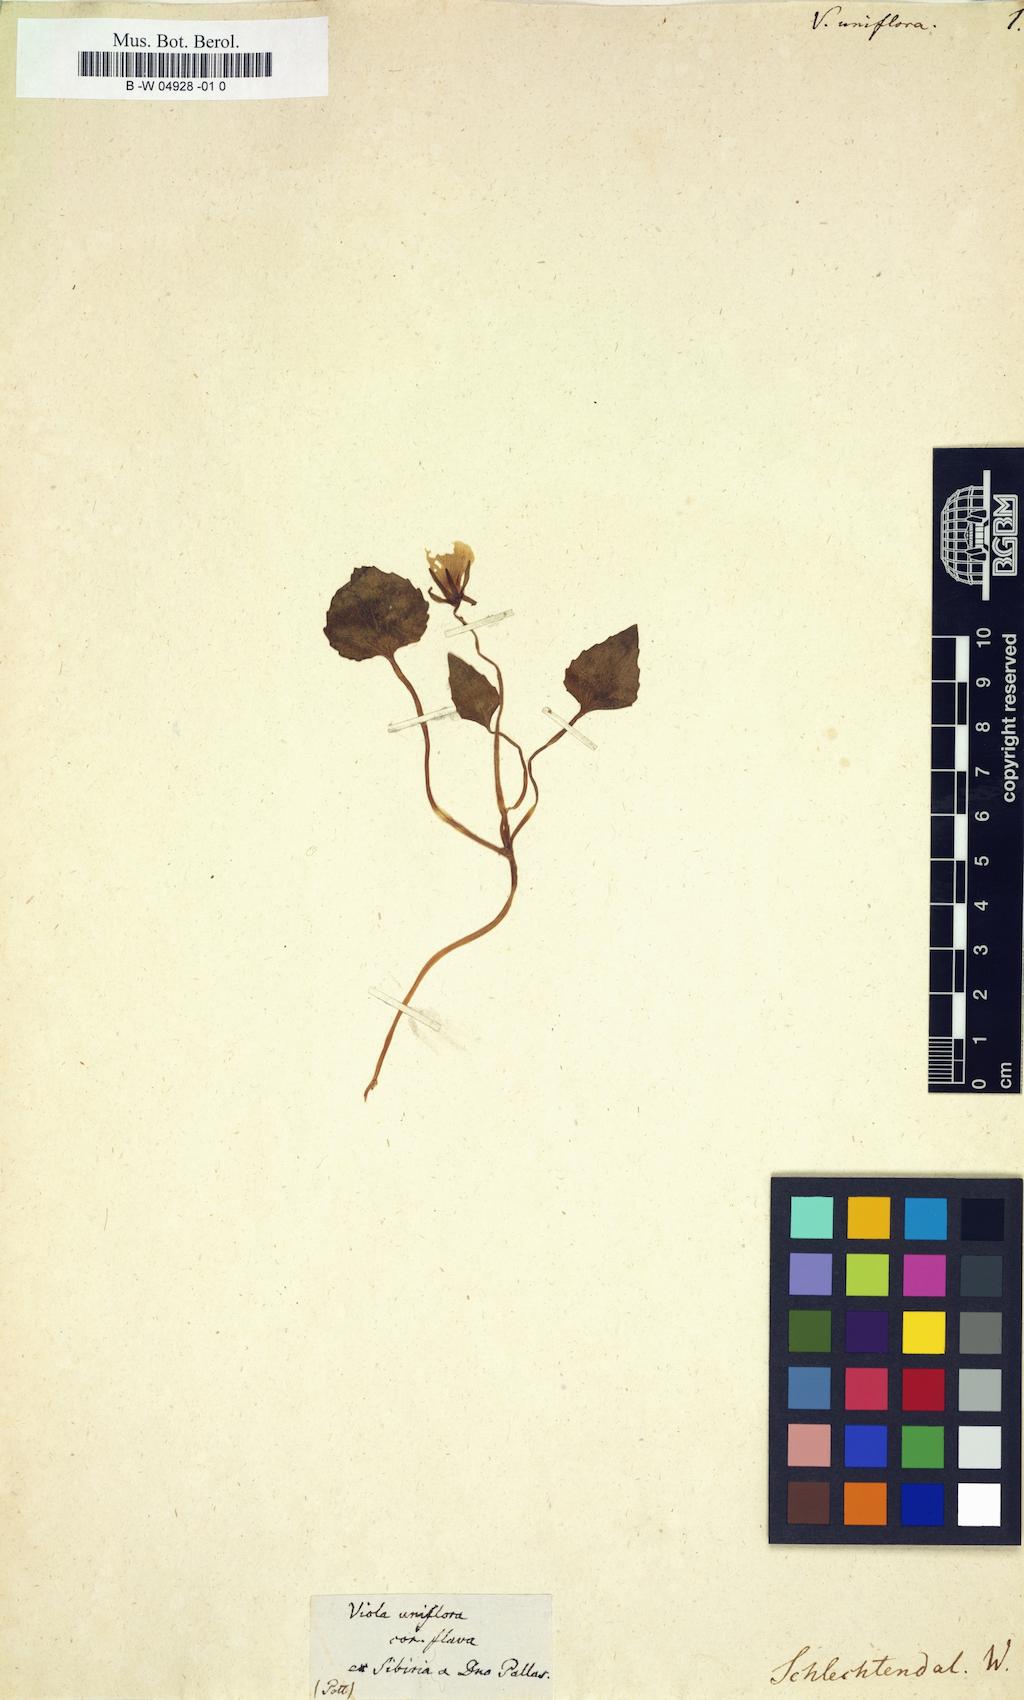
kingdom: Plantae
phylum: Tracheophyta
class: Magnoliopsida
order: Malpighiales
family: Violaceae
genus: Viola
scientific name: Viola uniflora
